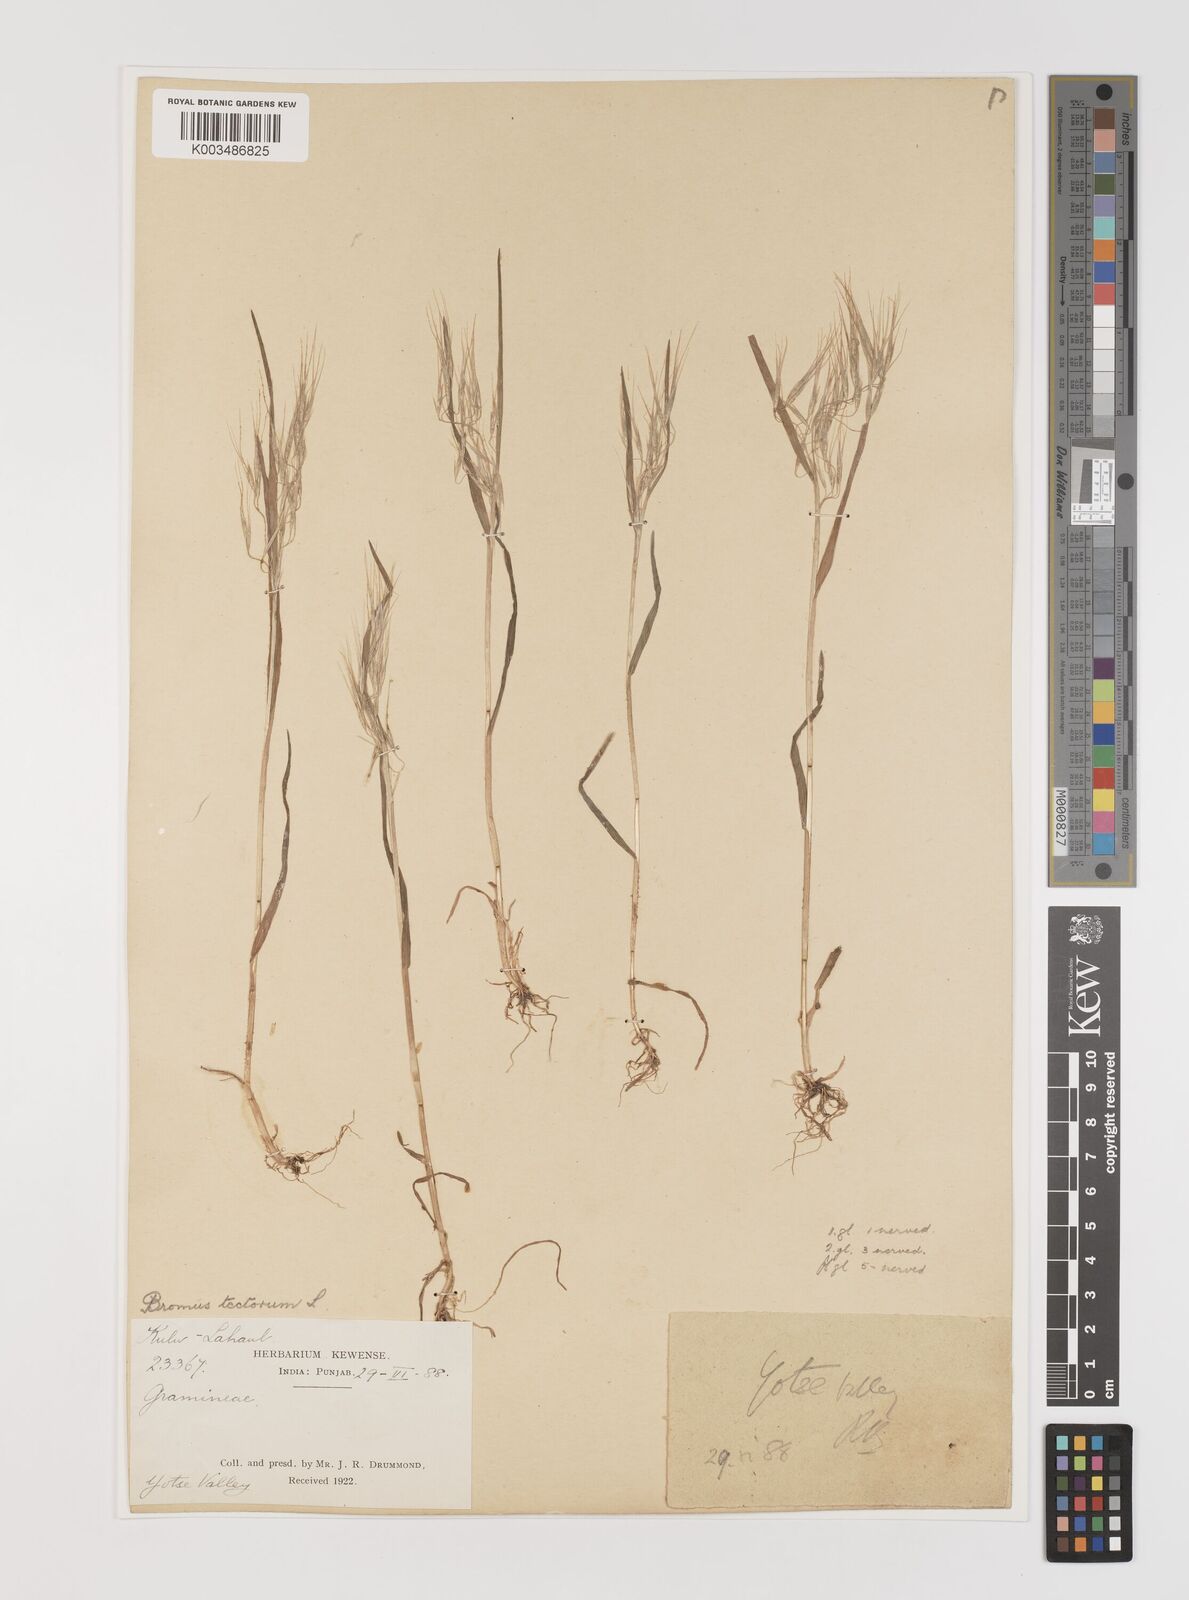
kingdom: Plantae
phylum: Tracheophyta
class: Liliopsida
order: Poales
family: Poaceae
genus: Bromus
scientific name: Bromus tectorum
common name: Cheatgrass
